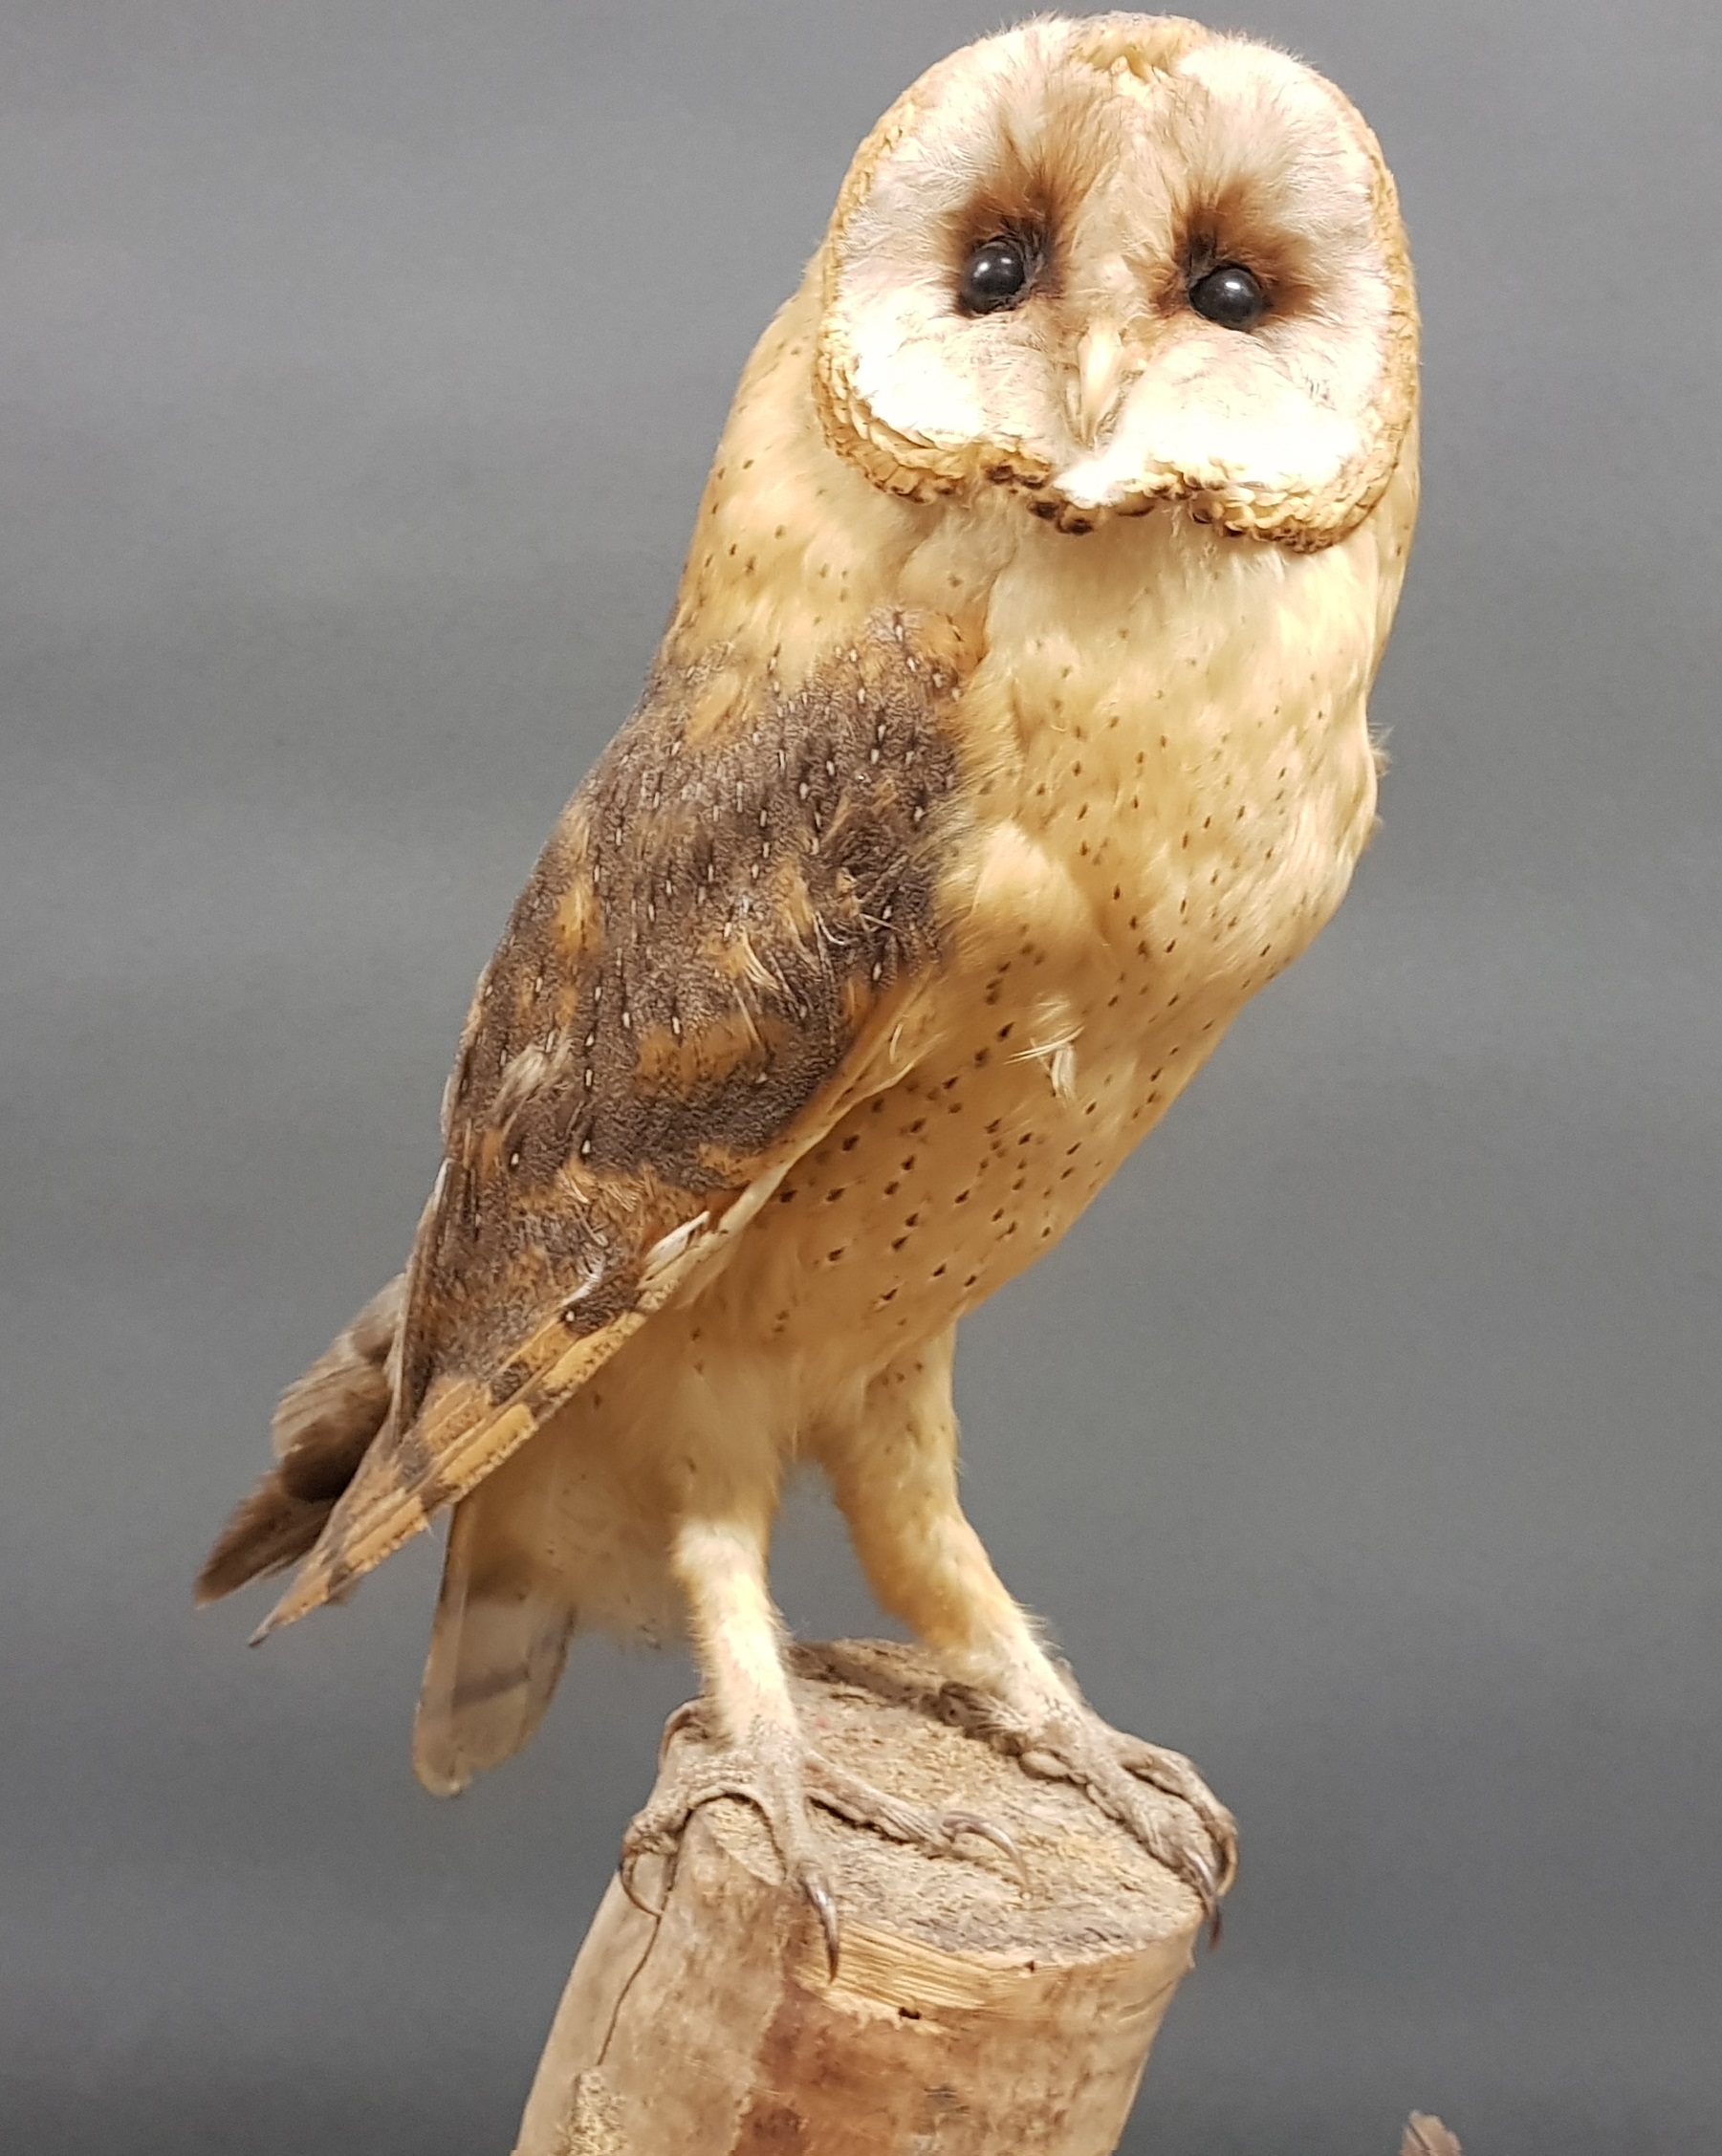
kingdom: Animalia
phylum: Chordata
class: Aves
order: Strigiformes
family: Tytonidae
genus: Tyto
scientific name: Tyto alba
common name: Barn owl
